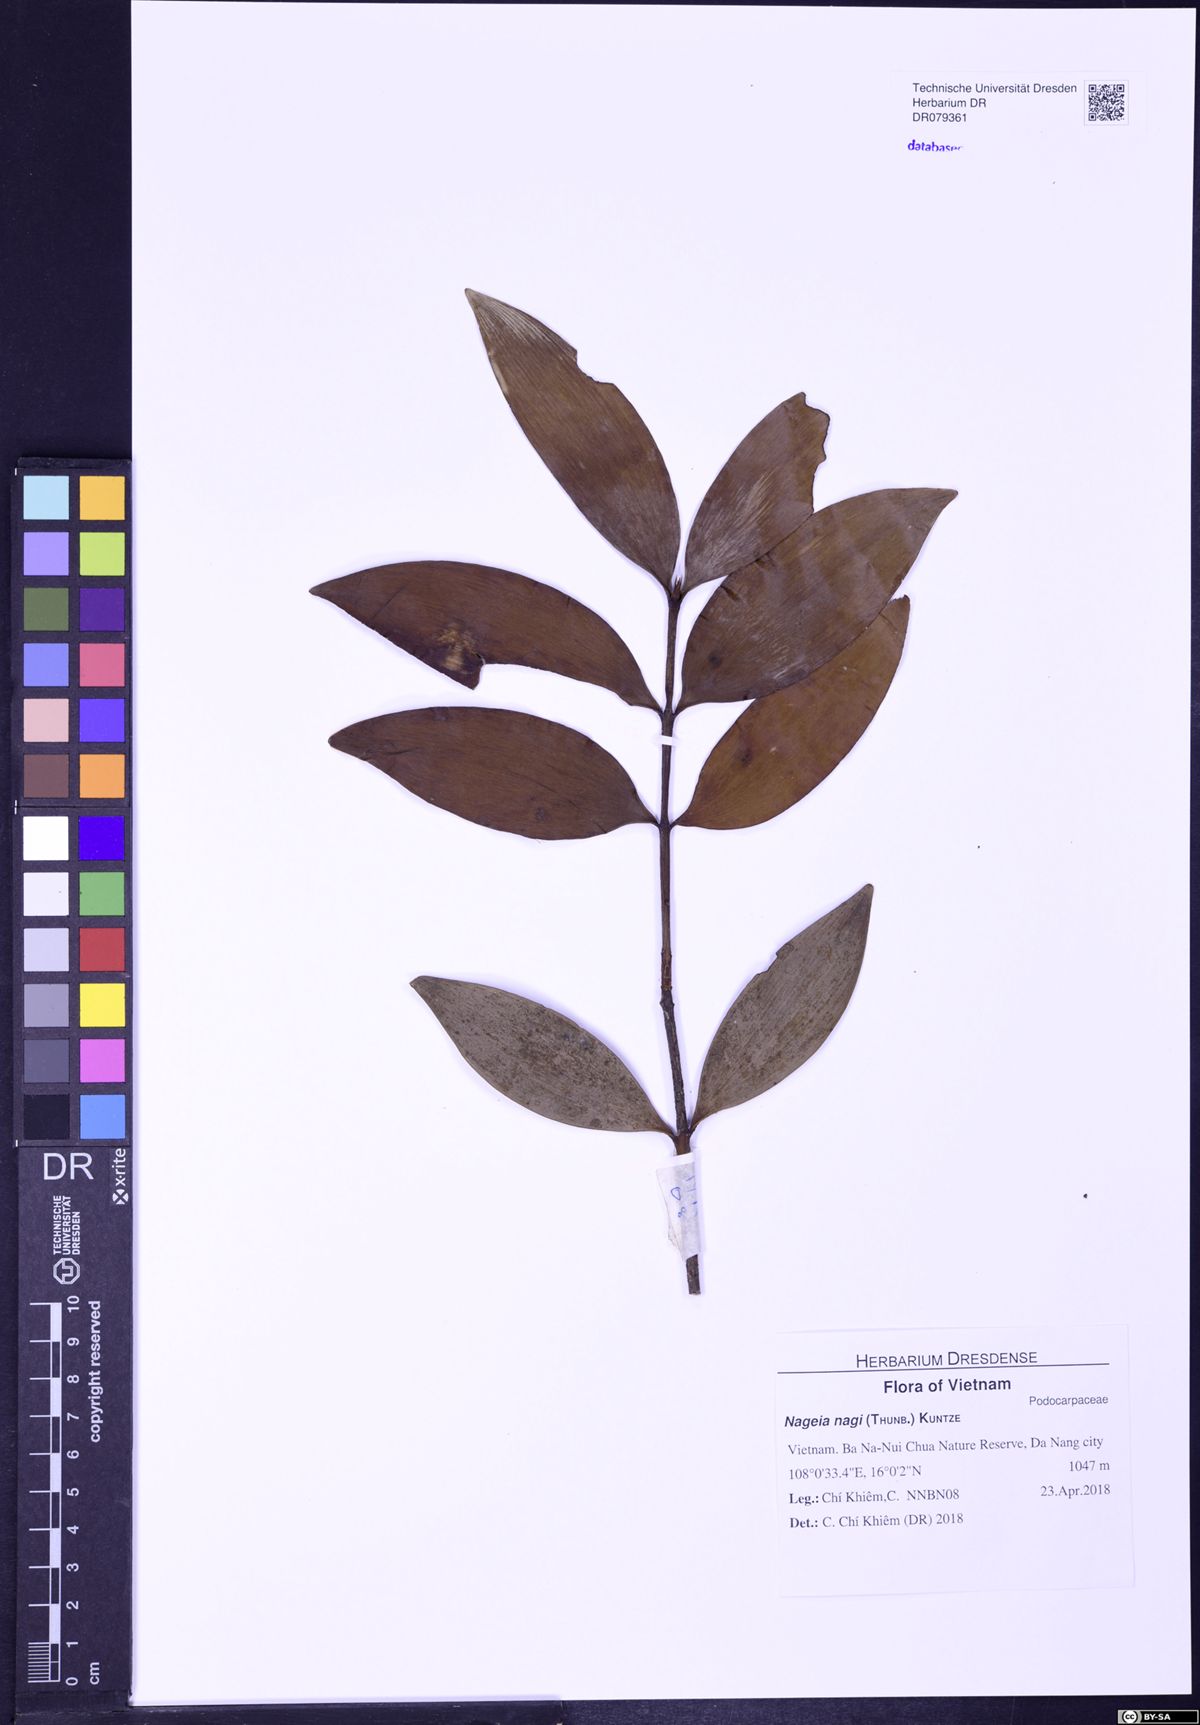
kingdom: Plantae
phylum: Tracheophyta
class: Pinopsida
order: Pinales
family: Podocarpaceae
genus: Nageia
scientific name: Nageia nagi
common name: Kaphal
